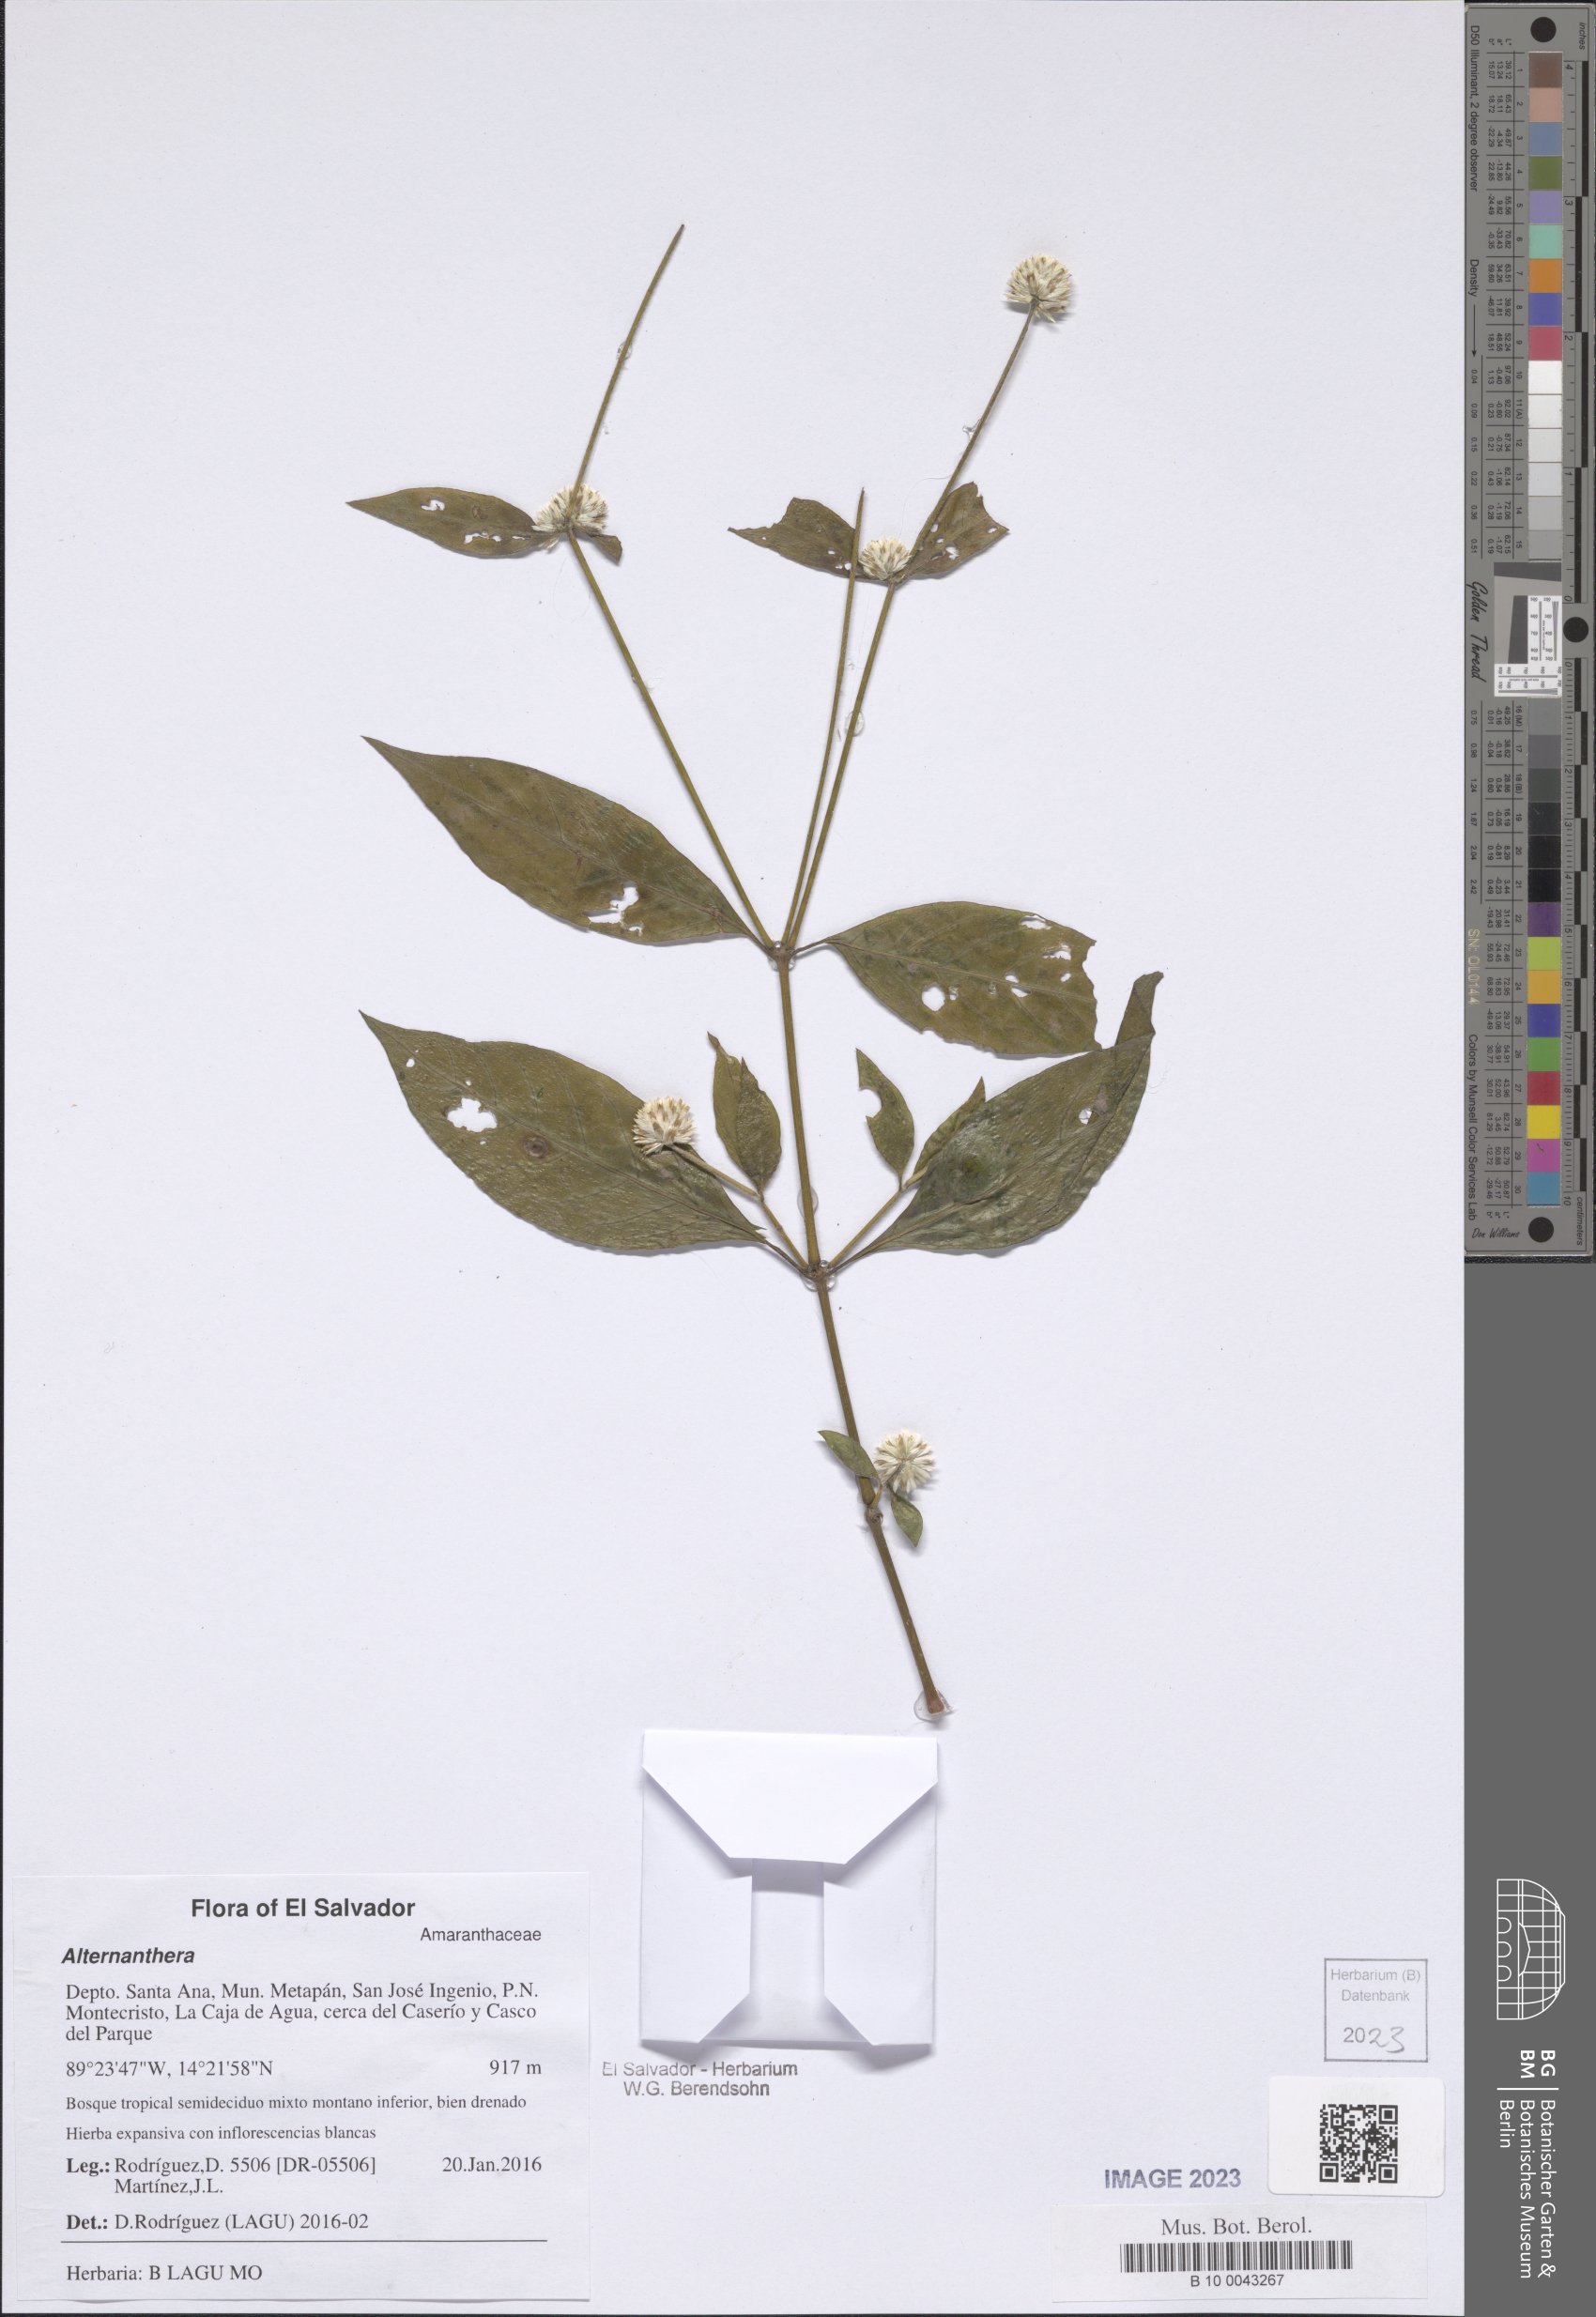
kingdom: Plantae
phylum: Tracheophyta
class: Magnoliopsida
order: Caryophyllales
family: Amaranthaceae
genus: Alternanthera
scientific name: Alternanthera
